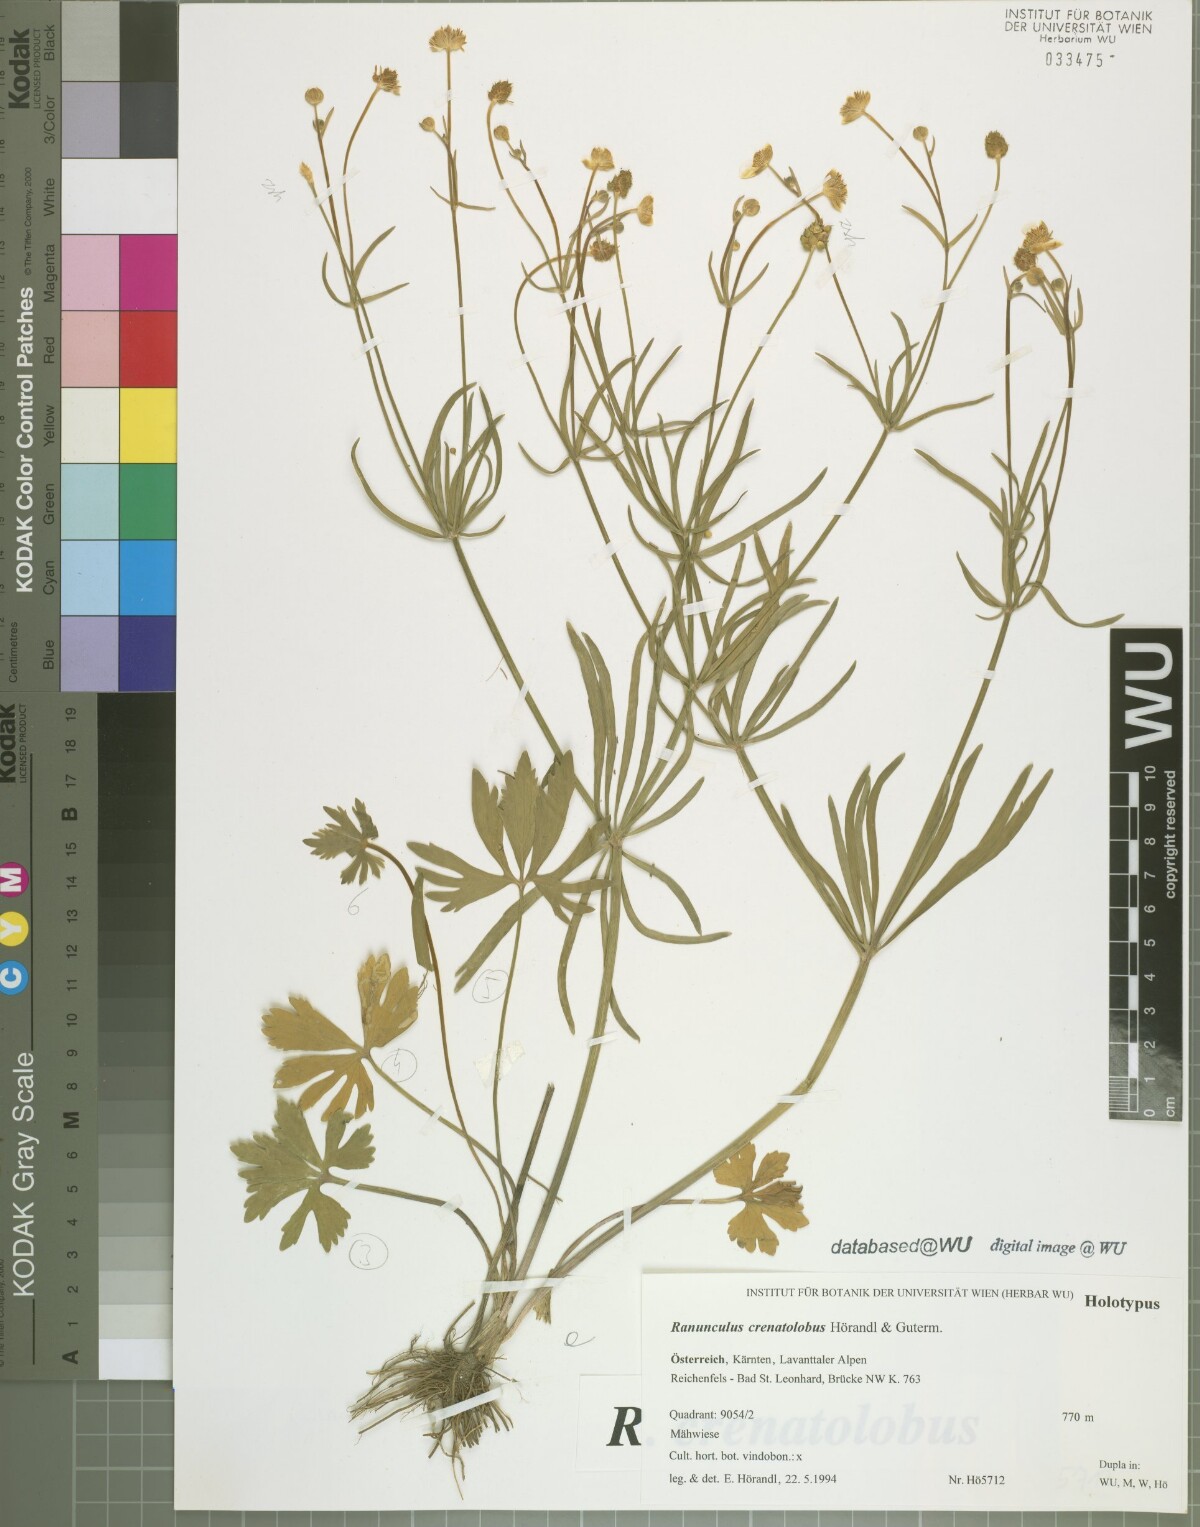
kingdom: Plantae
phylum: Tracheophyta
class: Magnoliopsida
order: Ranunculales
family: Ranunculaceae
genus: Ranunculus
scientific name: Ranunculus crenatolobus
